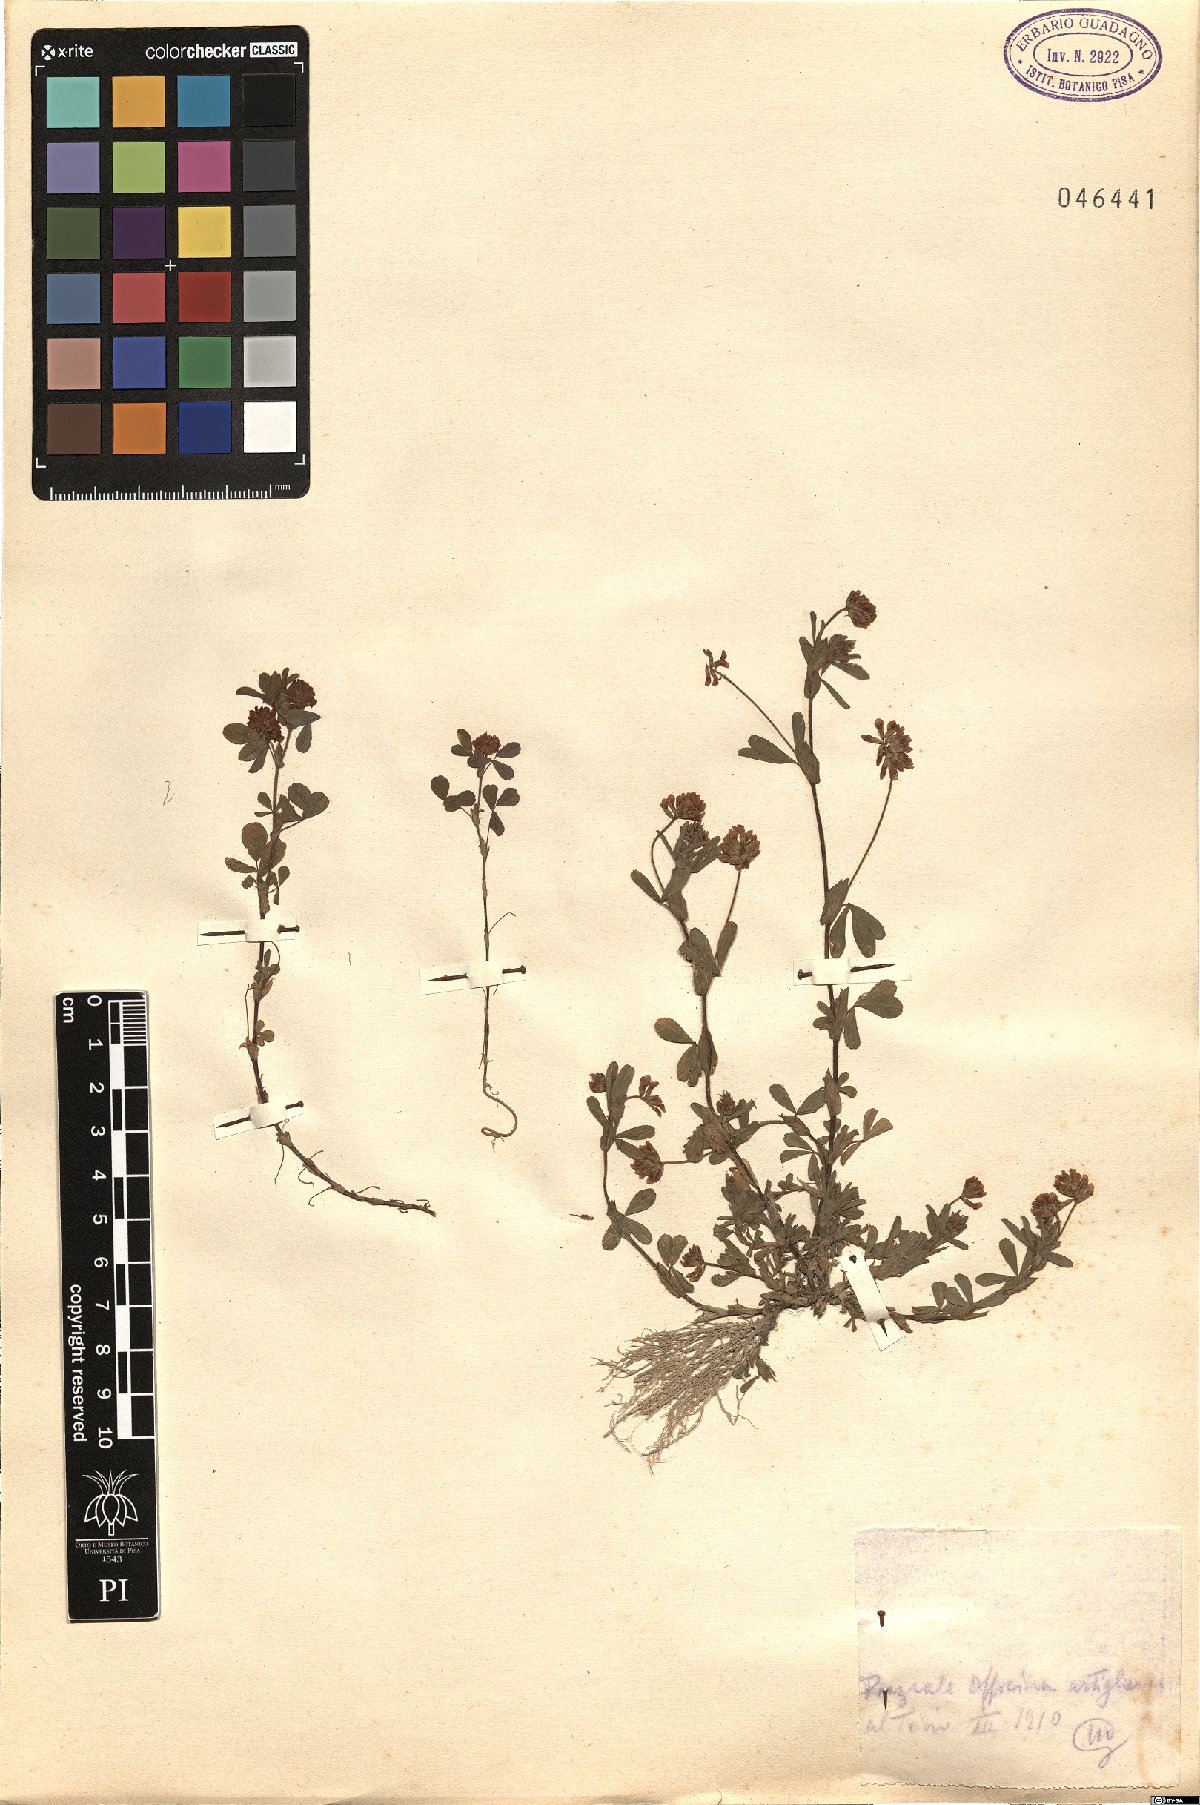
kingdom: Plantae
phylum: Tracheophyta
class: Magnoliopsida
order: Fabales
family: Fabaceae
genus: Trifolium
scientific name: Trifolium
